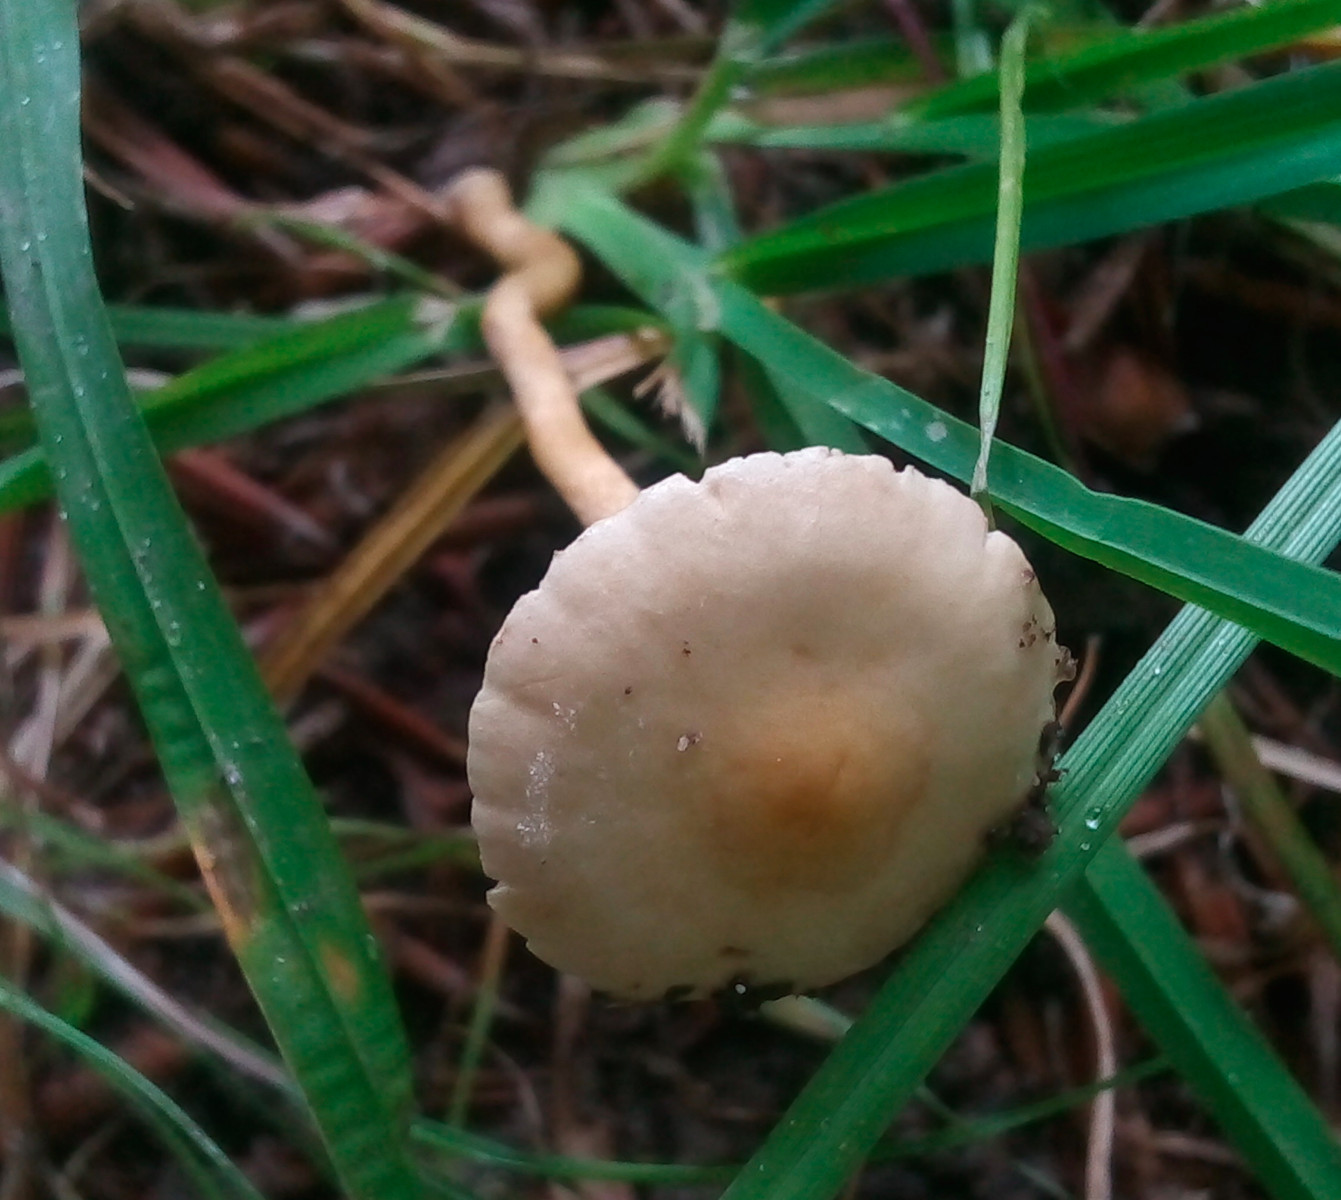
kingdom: Fungi
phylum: Basidiomycota
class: Agaricomycetes
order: Agaricales
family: Strophariaceae
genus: Agrocybe
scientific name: Agrocybe pediades
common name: almindelig agerhat
